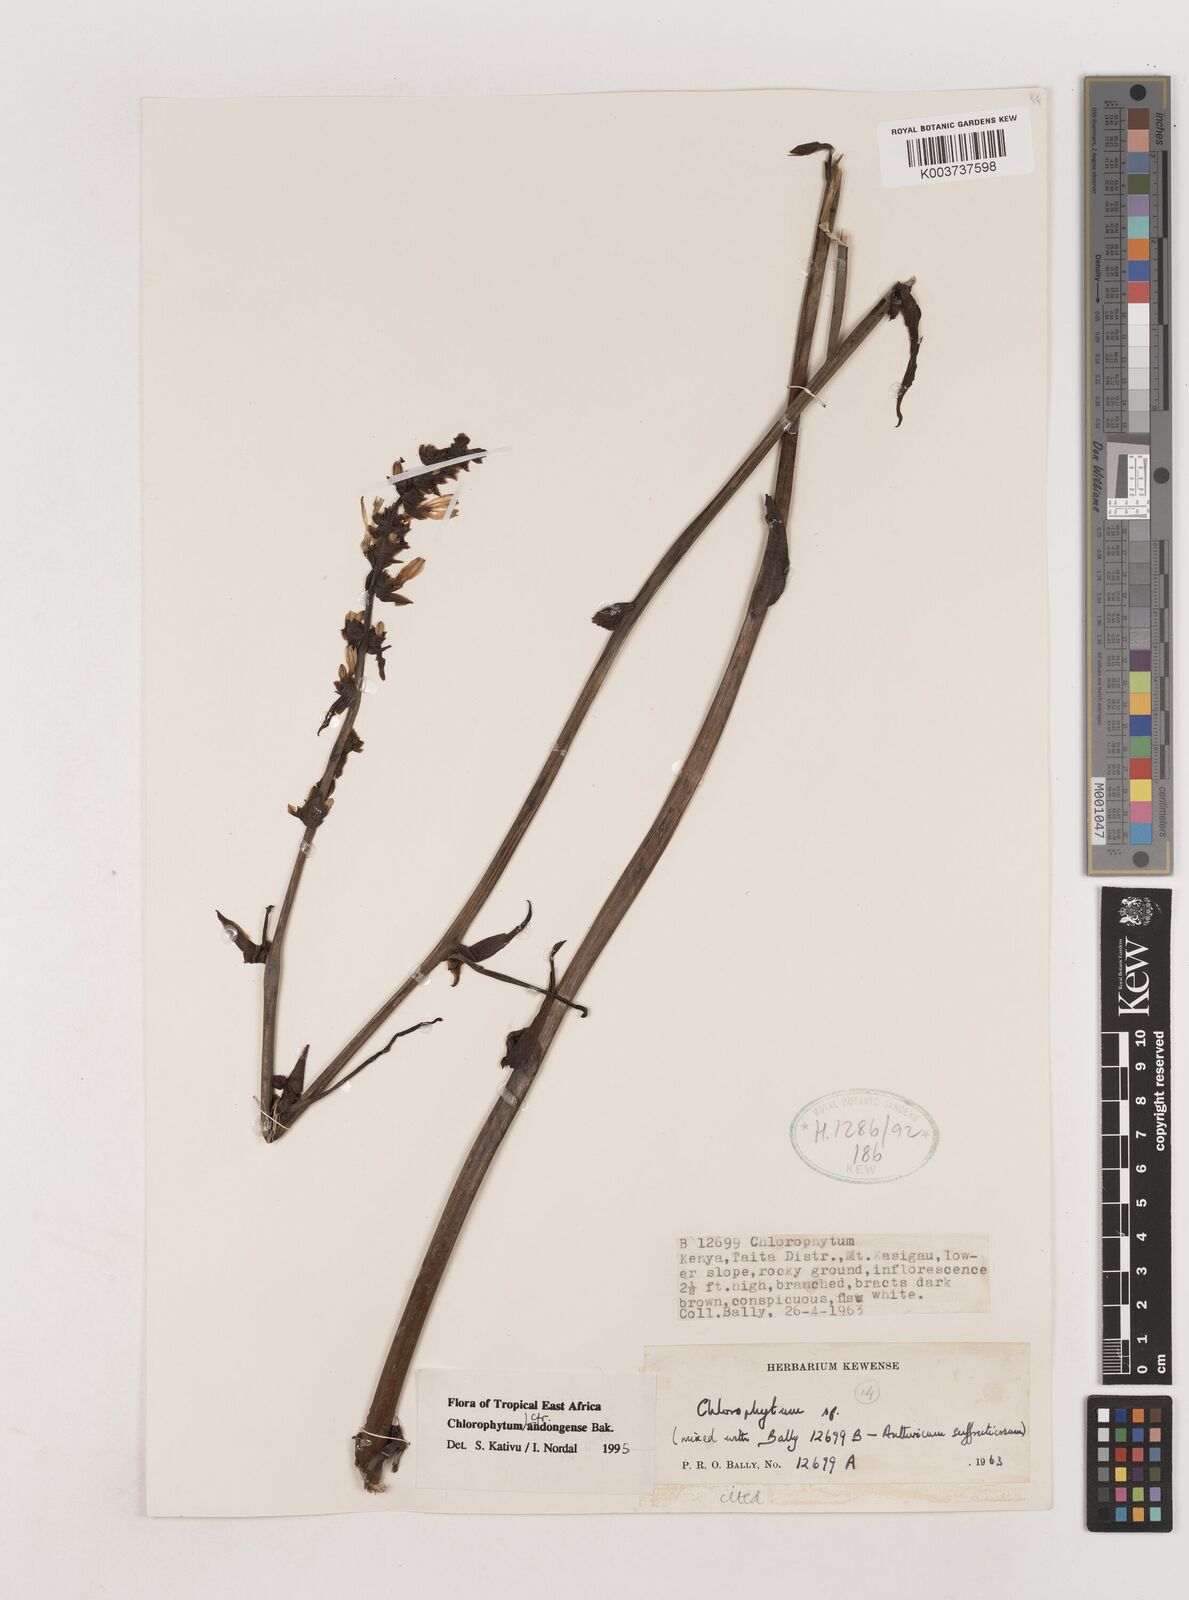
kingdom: Plantae
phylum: Tracheophyta
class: Liliopsida
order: Asparagales
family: Asparagaceae
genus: Chlorophytum
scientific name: Chlorophytum andongense
